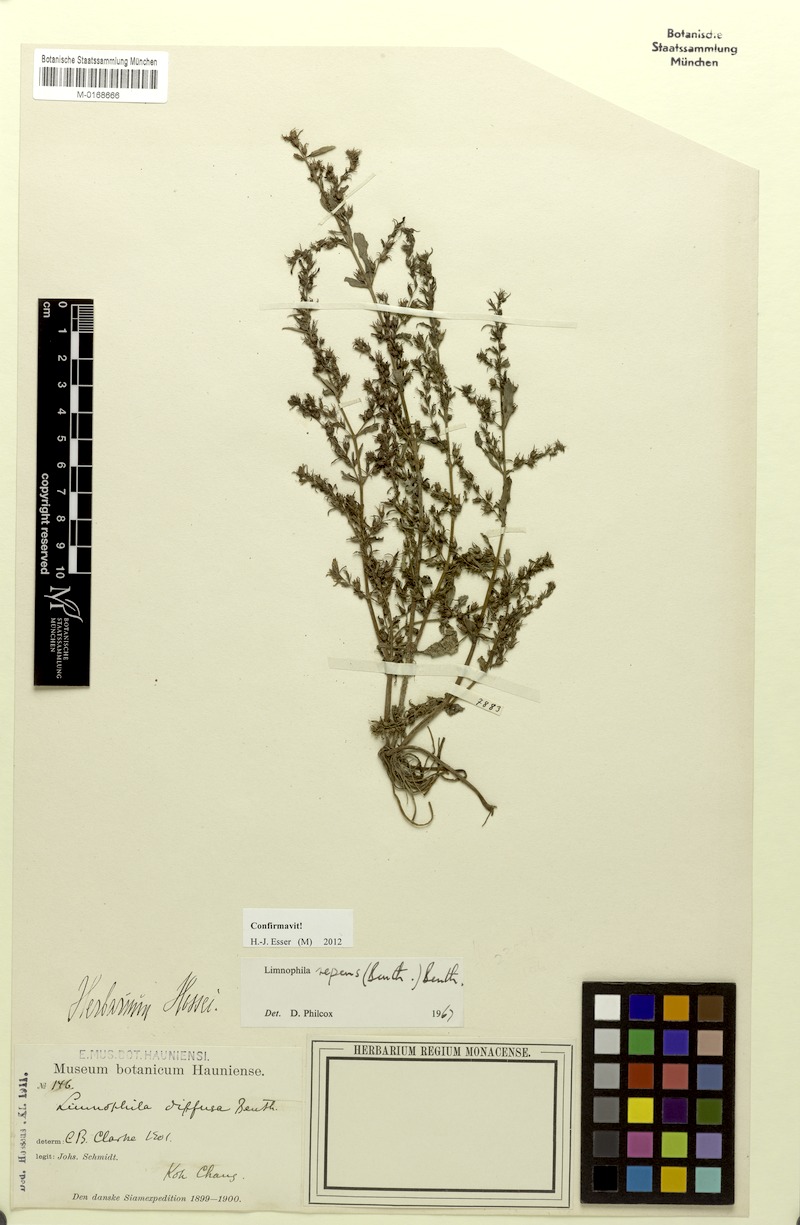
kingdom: Plantae
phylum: Tracheophyta
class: Magnoliopsida
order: Lamiales
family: Plantaginaceae
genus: Limnophila
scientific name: Limnophila repens
